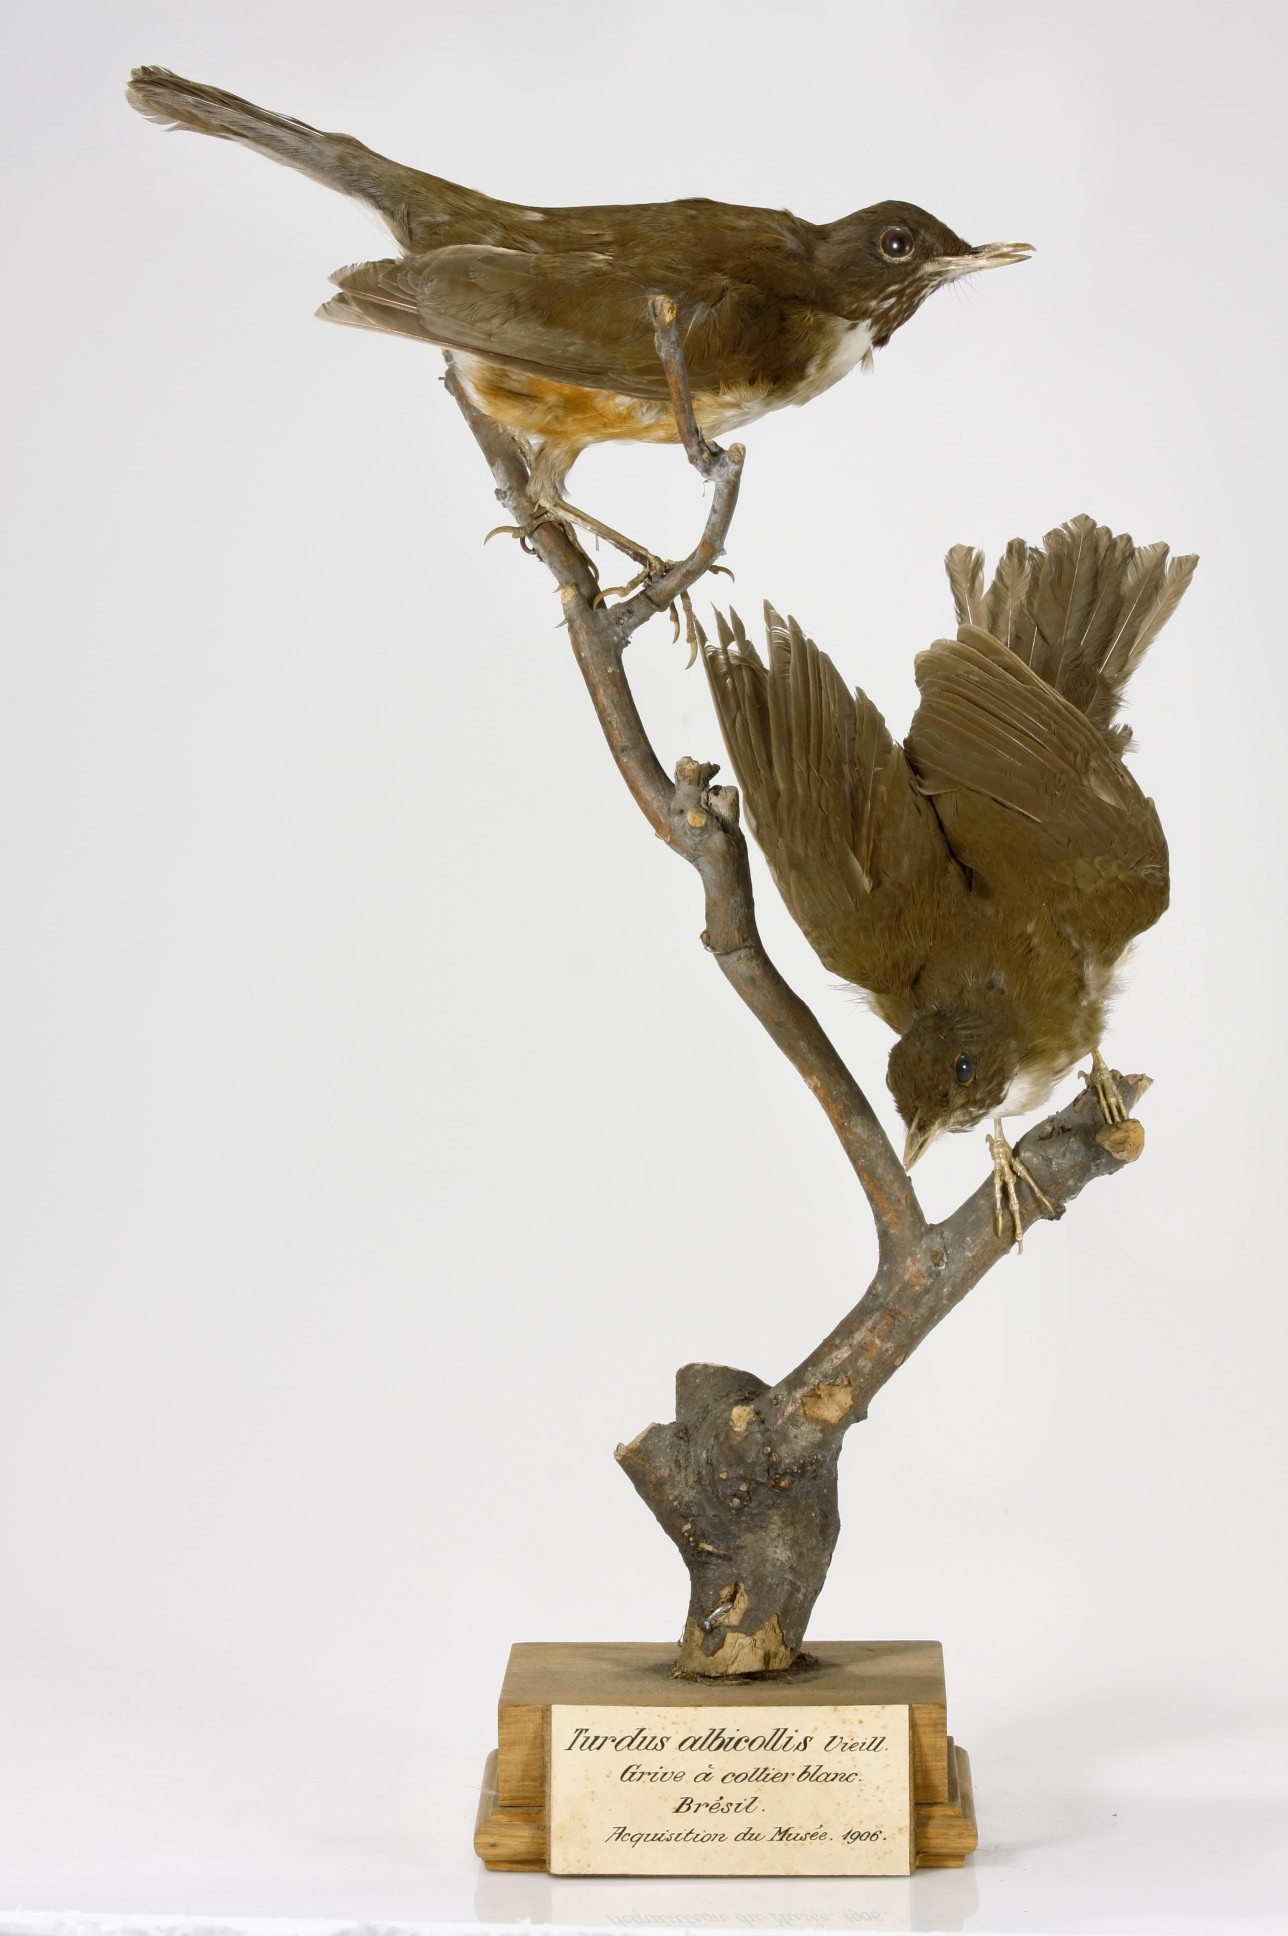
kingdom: Animalia
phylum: Chordata
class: Aves
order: Passeriformes
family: Turdidae
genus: Turdus
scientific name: Turdus albicollis
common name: White-necked thrush
